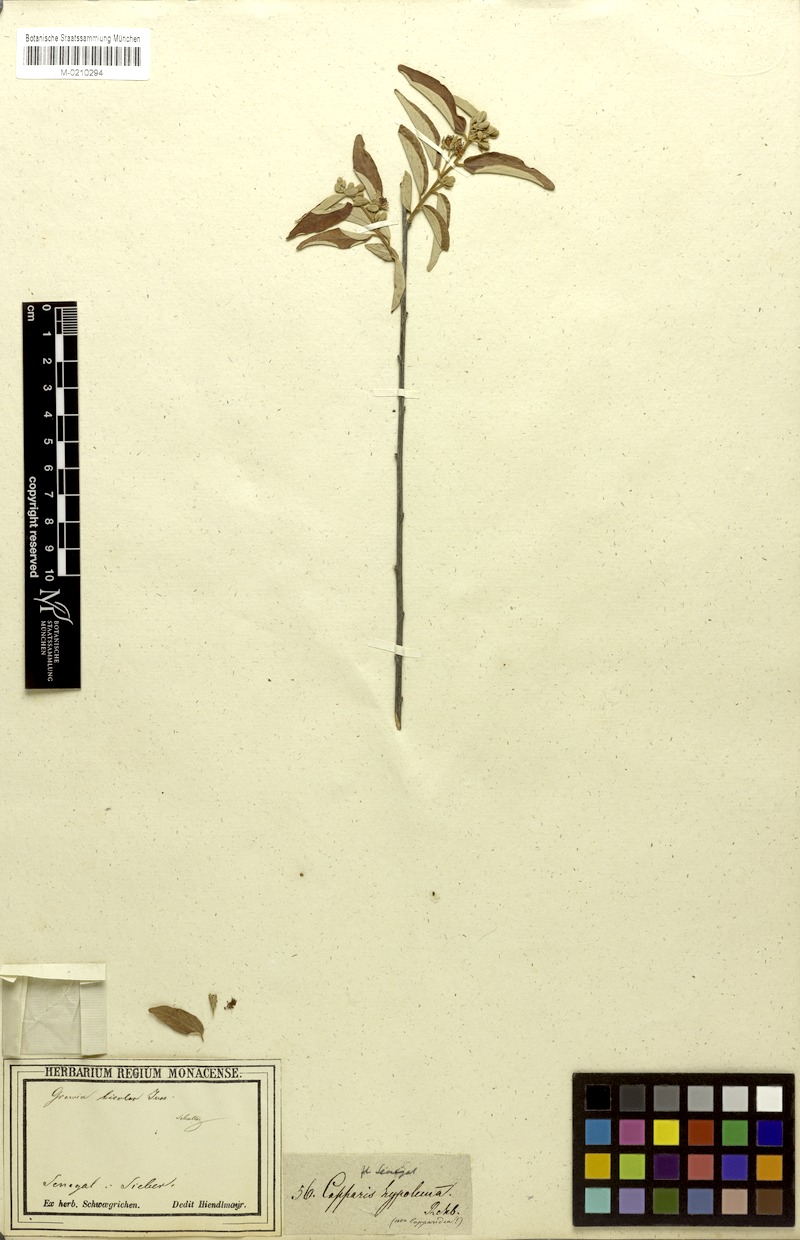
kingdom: Plantae
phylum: Tracheophyta
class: Magnoliopsida
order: Malvales
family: Malvaceae
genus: Grewia
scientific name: Grewia bicolor
